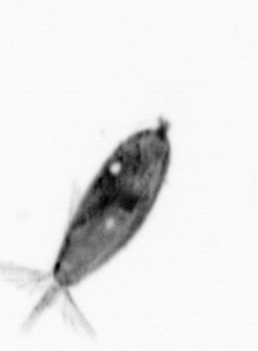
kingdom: Animalia
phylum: Arthropoda
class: Maxillopoda
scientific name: Maxillopoda
